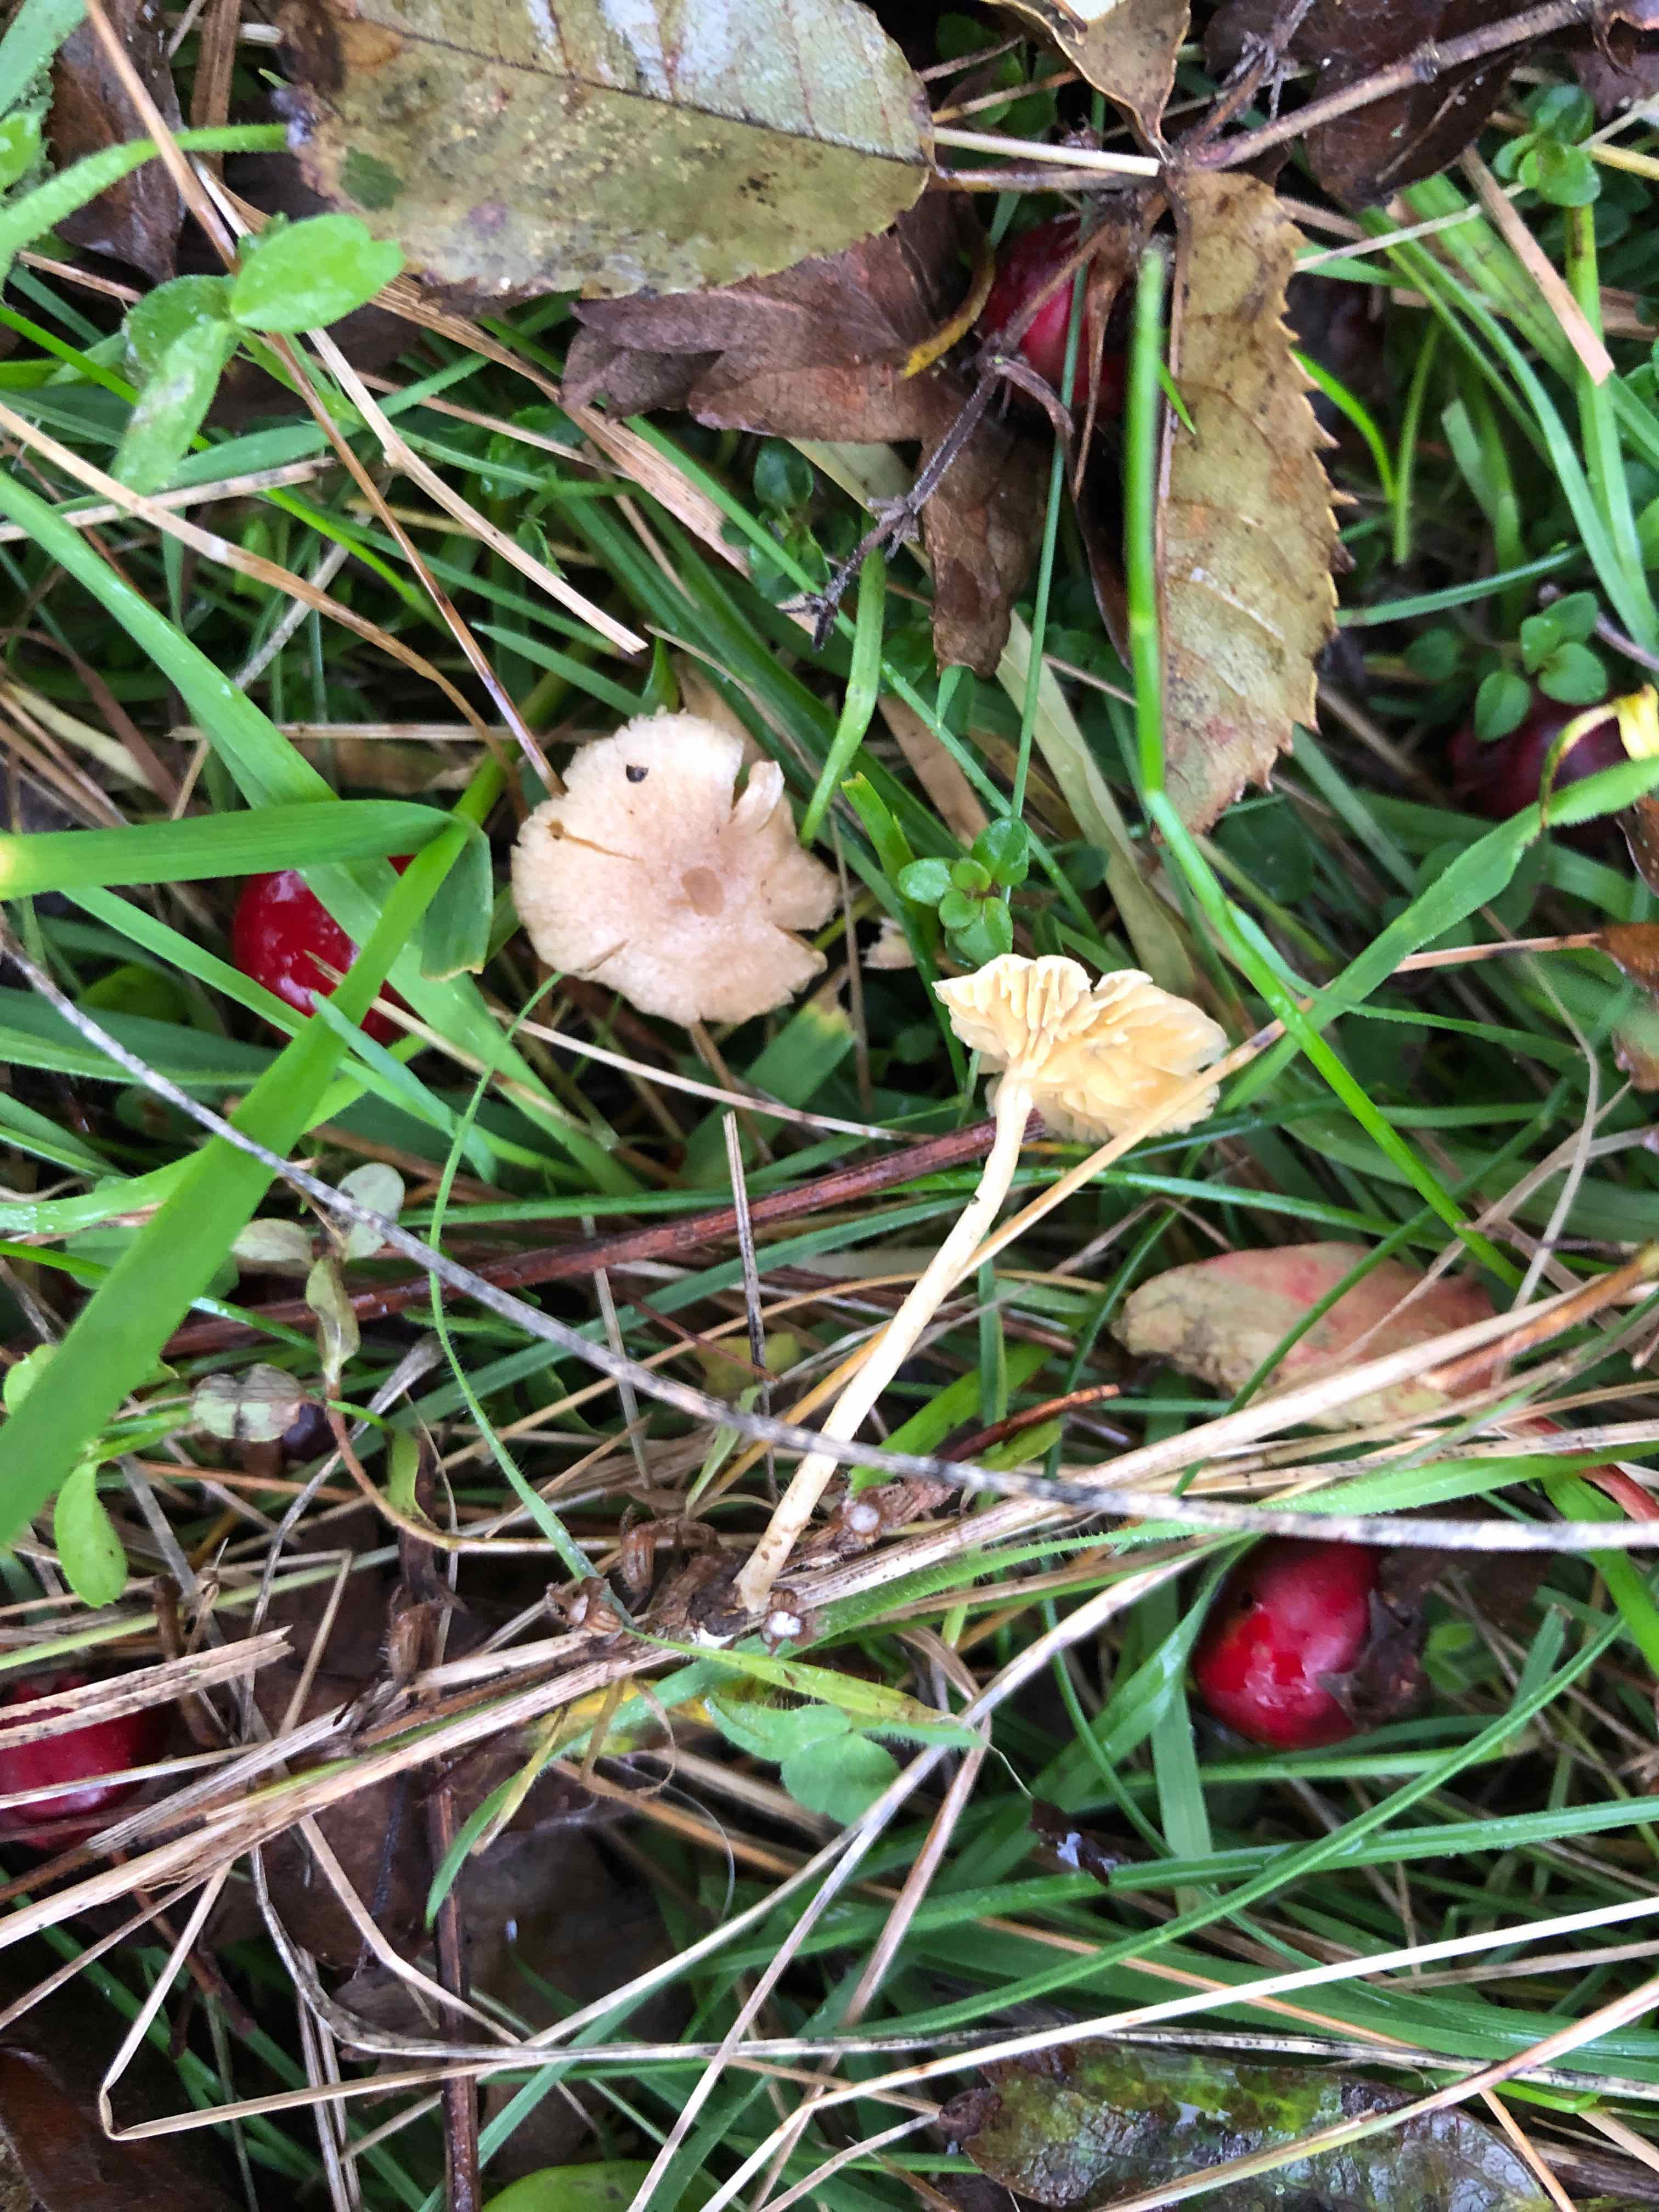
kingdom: Fungi
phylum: Basidiomycota
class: Agaricomycetes
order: Agaricales
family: Tubariaceae
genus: Tubaria
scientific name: Tubaria dispersa
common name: tjørne-fnughat
